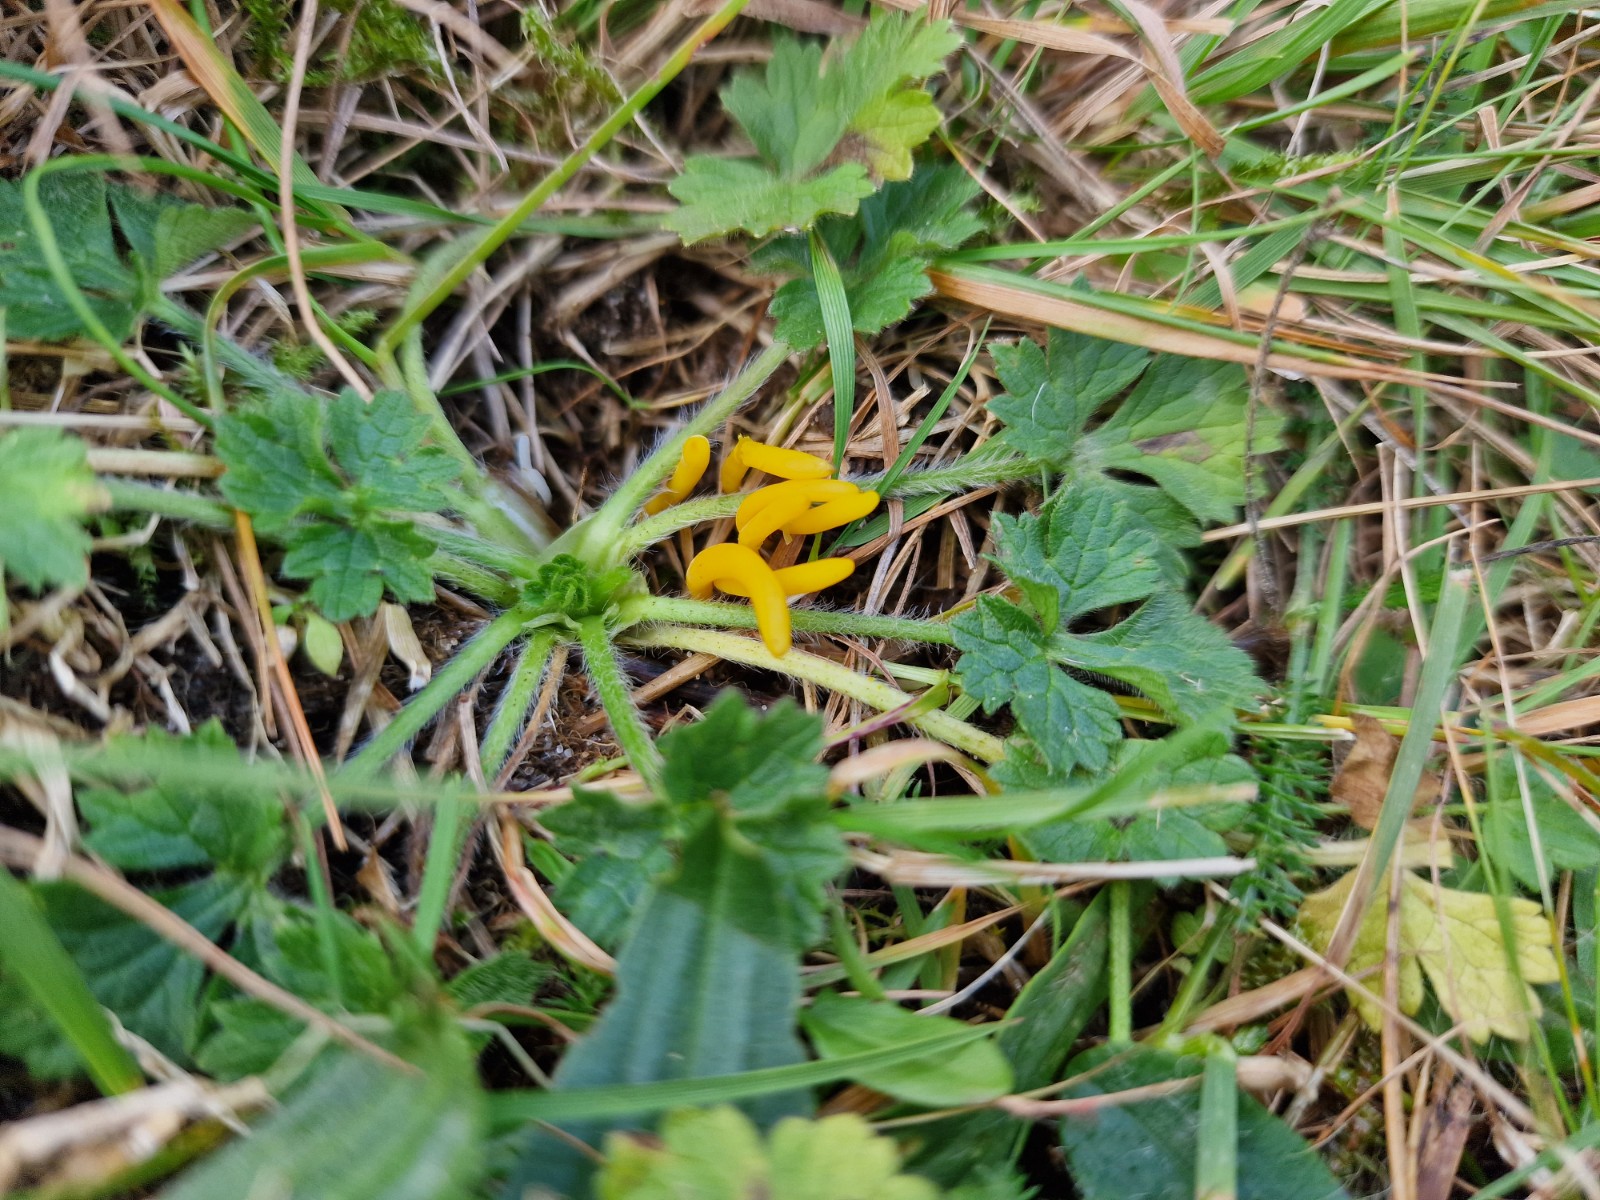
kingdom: Fungi
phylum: Basidiomycota
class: Agaricomycetes
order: Agaricales
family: Clavariaceae
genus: Clavulinopsis
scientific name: Clavulinopsis helvola
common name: orangegul køllesvamp
